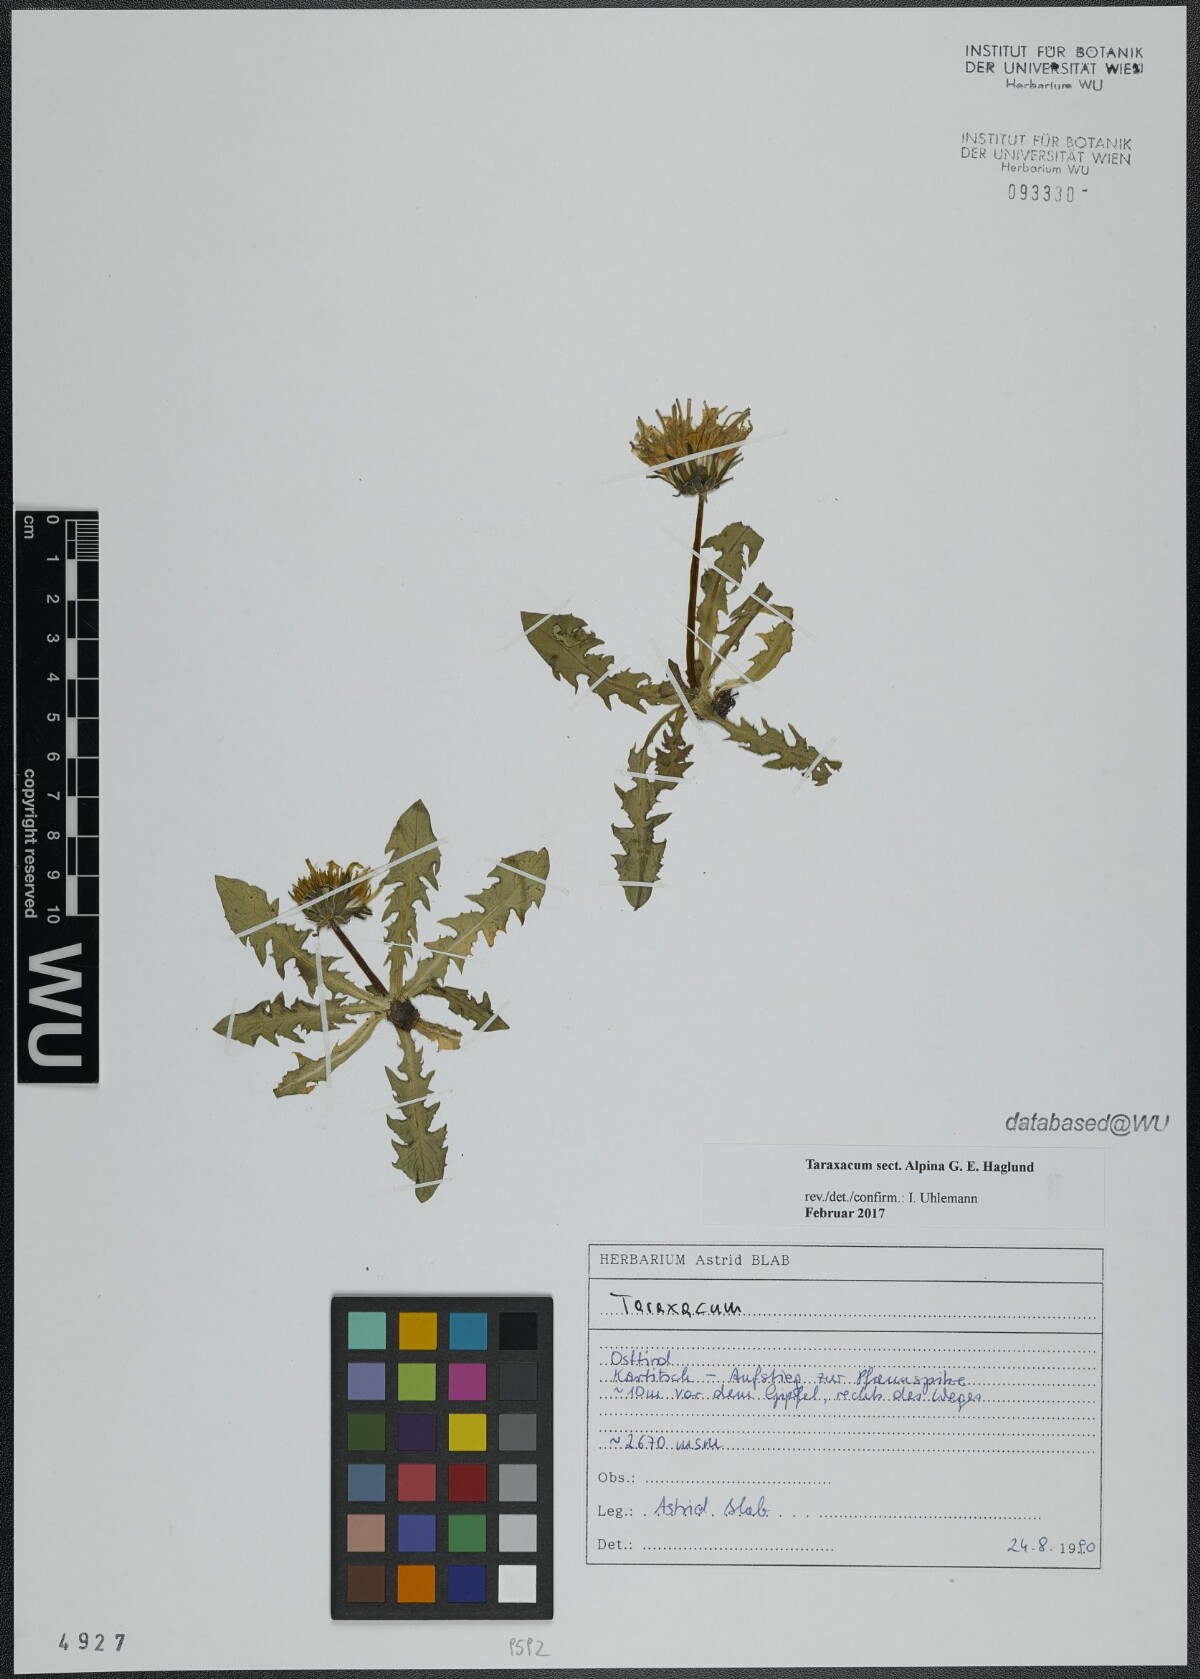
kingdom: Plantae
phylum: Tracheophyta
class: Magnoliopsida
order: Asterales
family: Asteraceae
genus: Taraxacum
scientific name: Taraxacum
